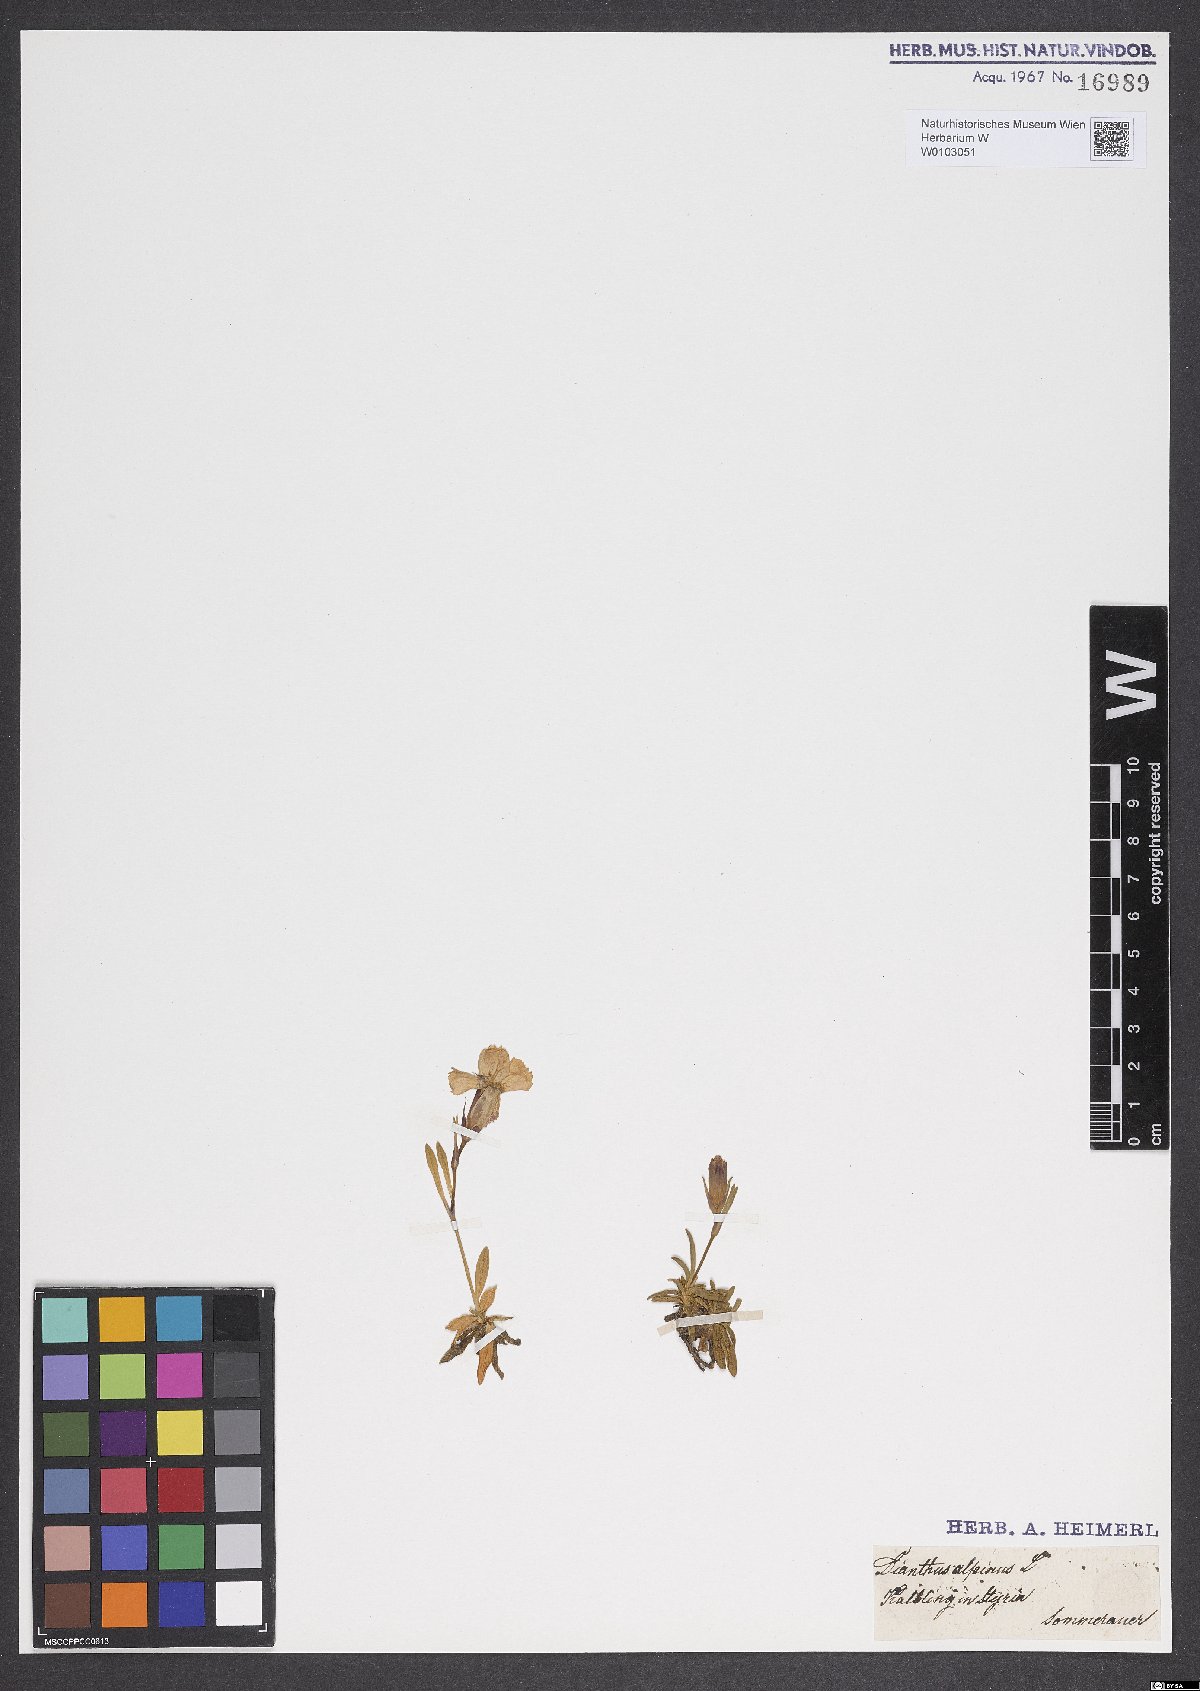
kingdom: Plantae
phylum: Tracheophyta
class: Magnoliopsida
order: Caryophyllales
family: Caryophyllaceae
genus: Dianthus
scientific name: Dianthus alpinus
